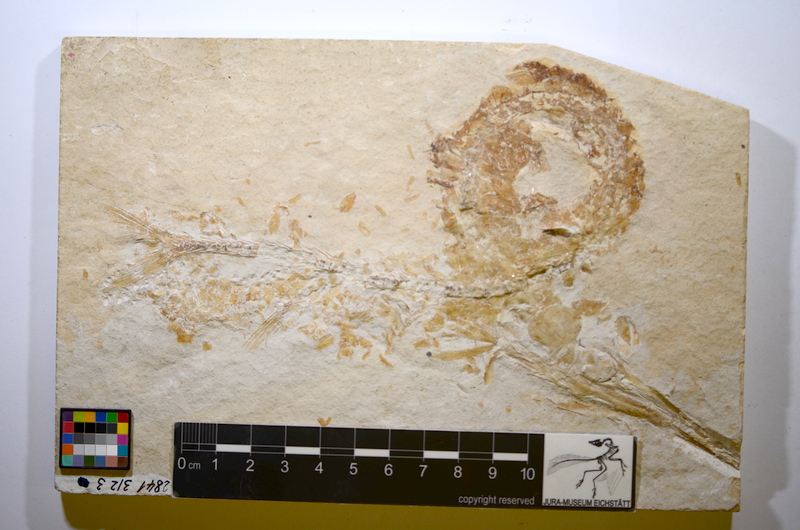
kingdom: Animalia
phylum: Chordata
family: Aspidorhynchidae
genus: Belonostomus
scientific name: Belonostomus tenuirostris
